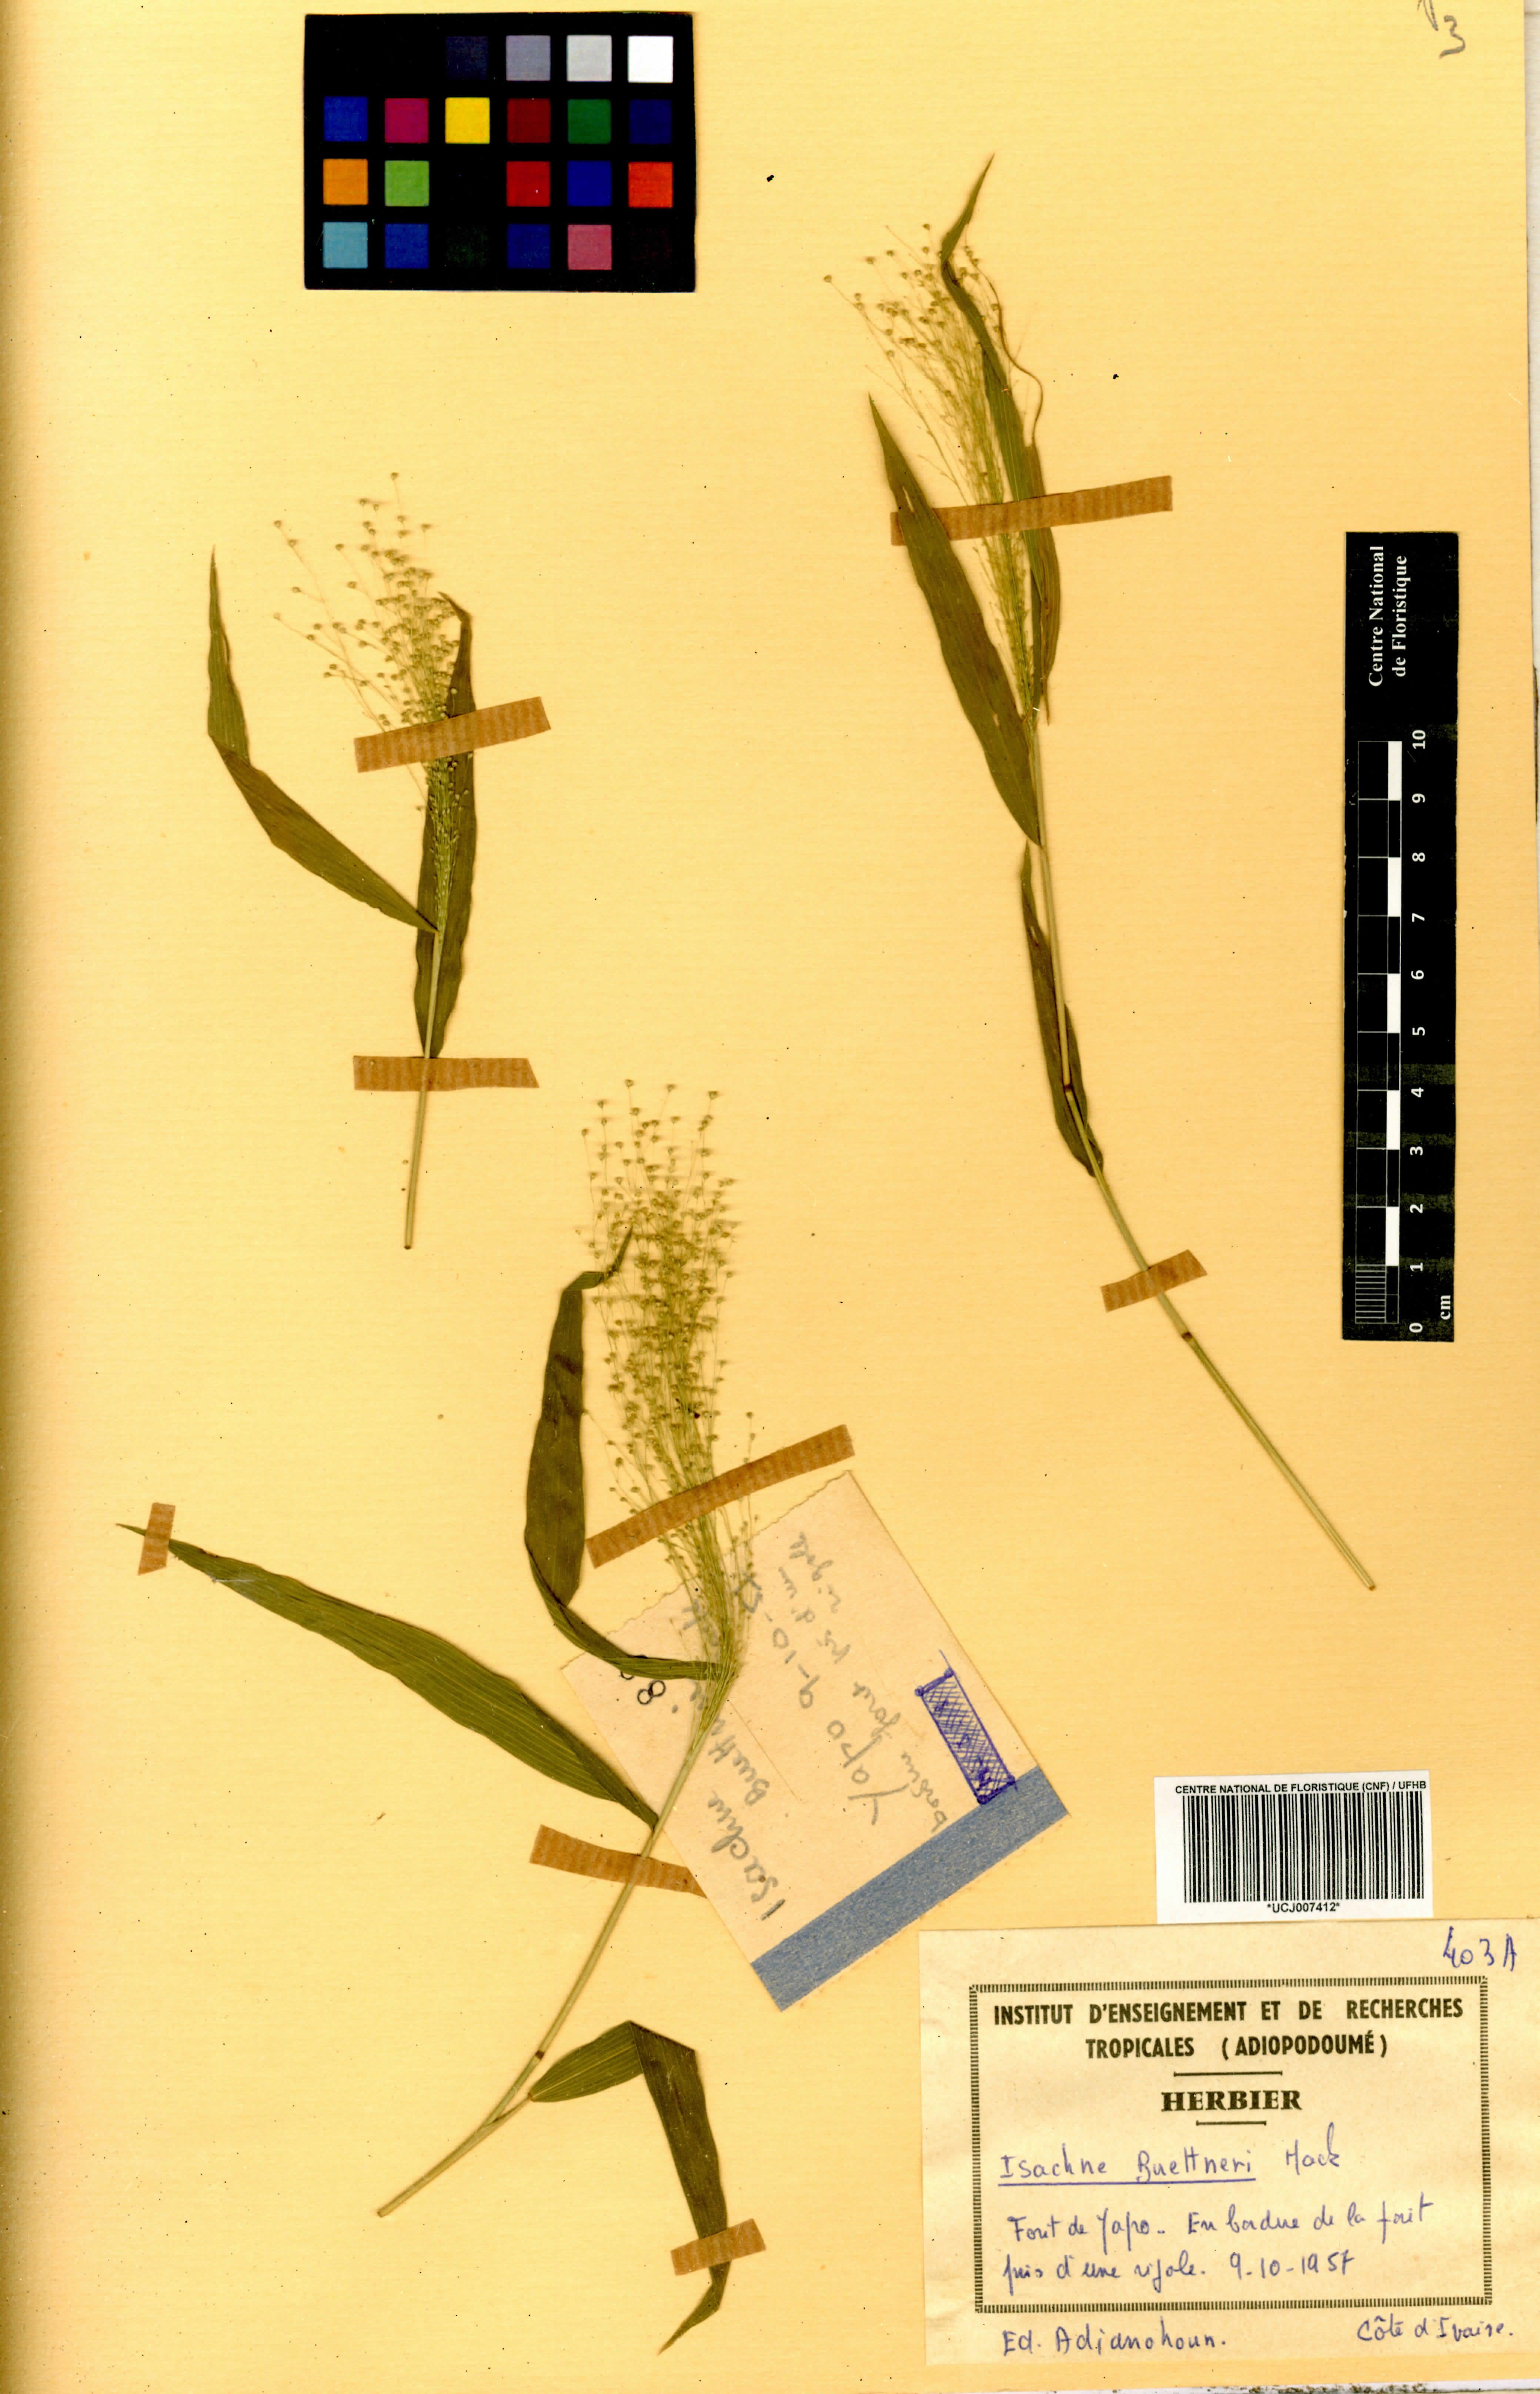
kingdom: Plantae
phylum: Tracheophyta
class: Liliopsida
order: Poales
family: Poaceae
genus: Isachne
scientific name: Isachne albens
